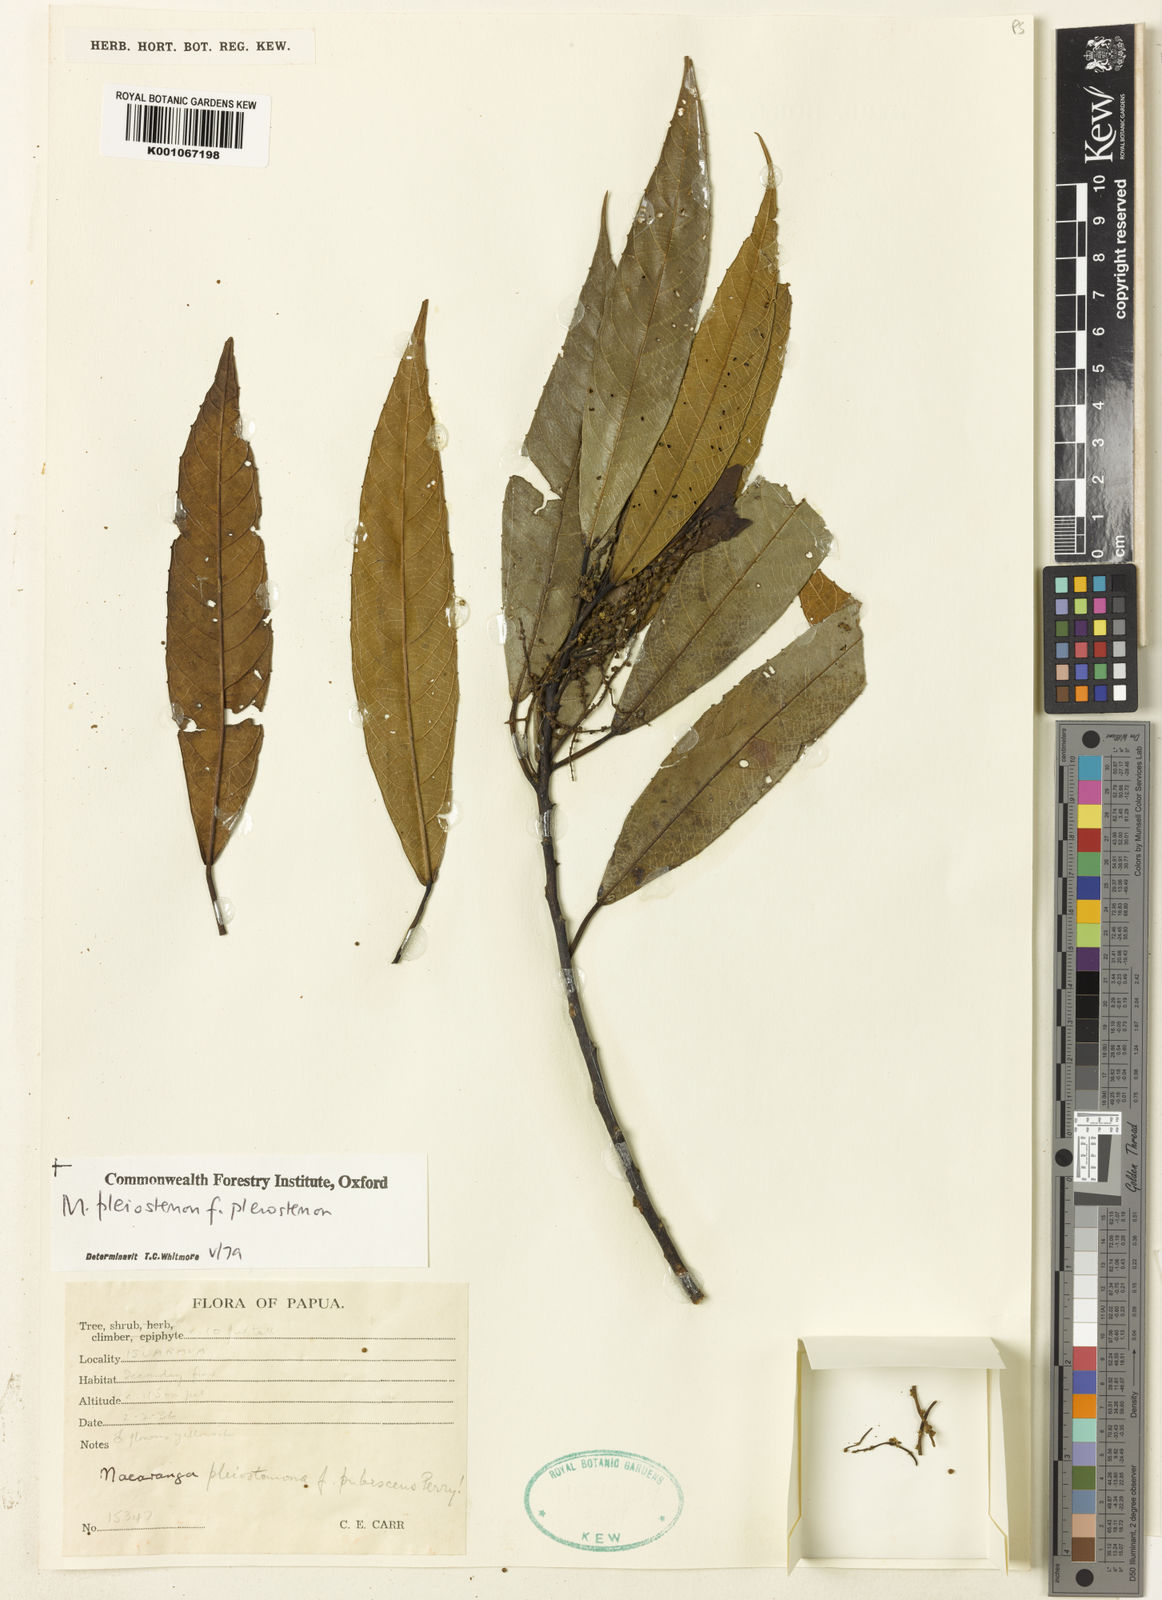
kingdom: Plantae
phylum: Tracheophyta
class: Magnoliopsida
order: Malpighiales
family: Euphorbiaceae
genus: Macaranga
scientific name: Macaranga pleiostemon
